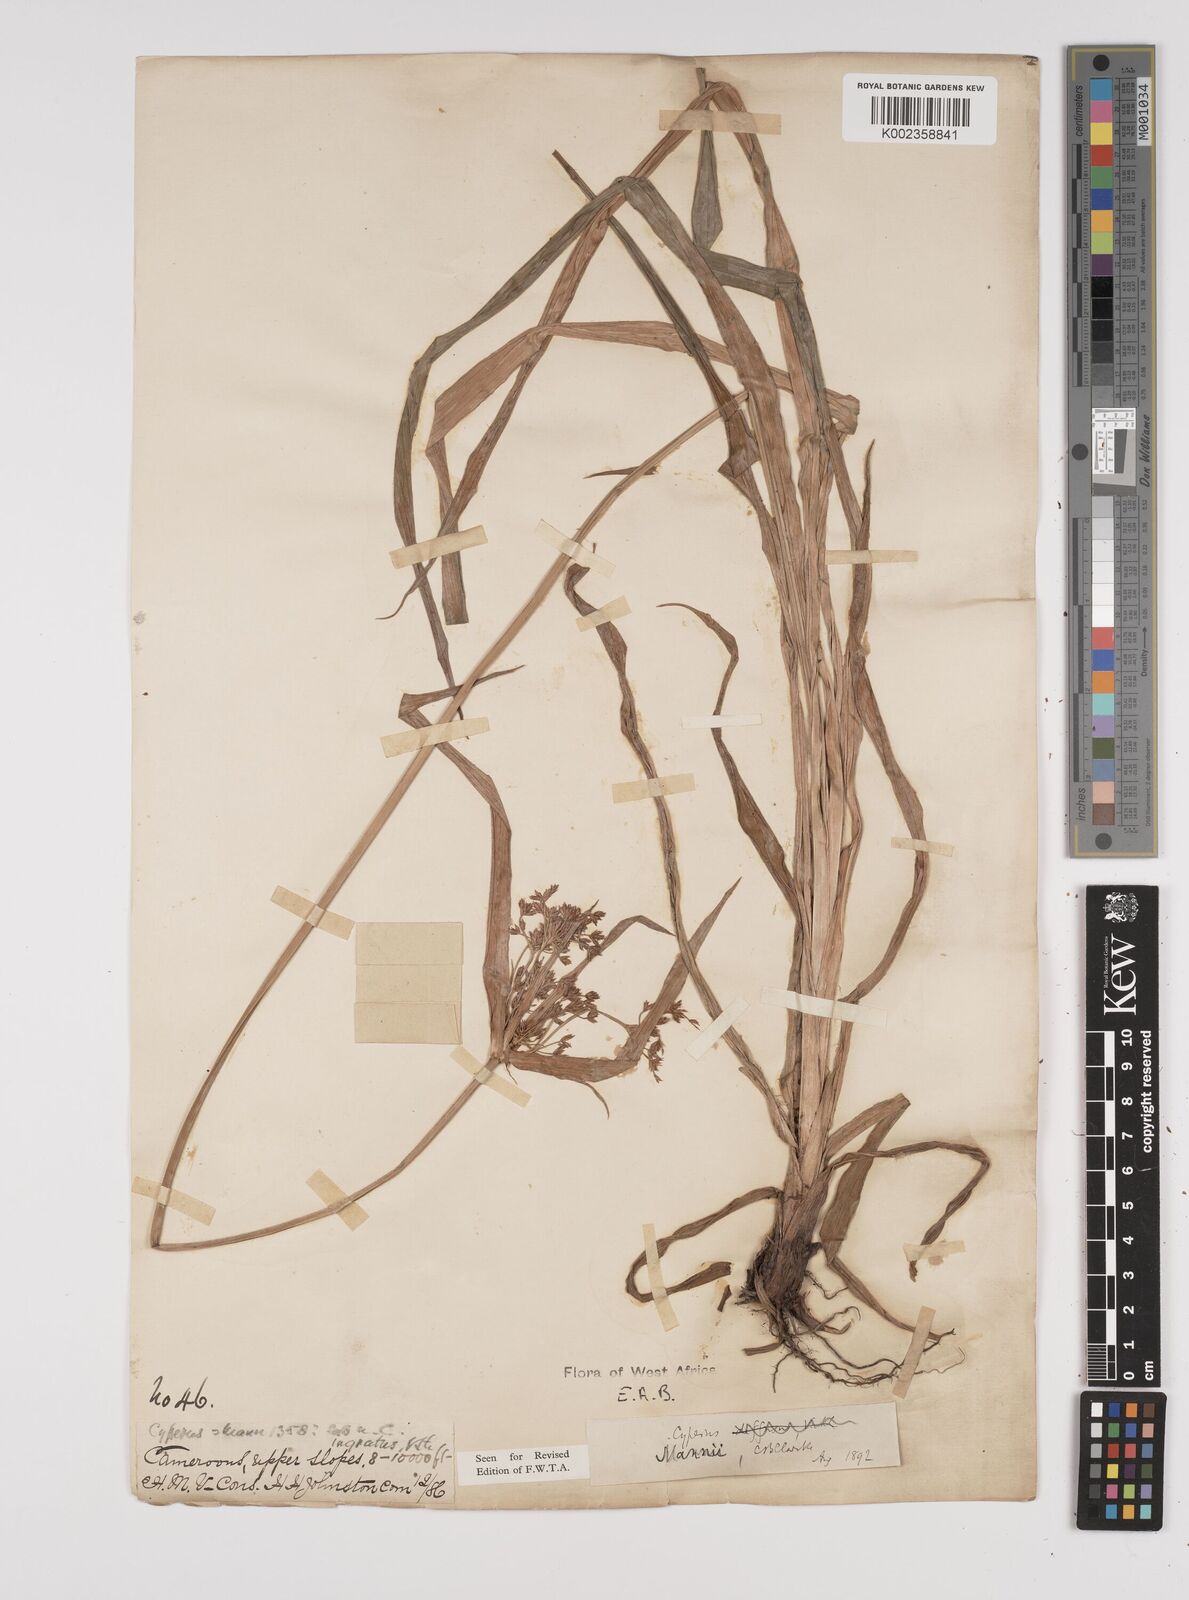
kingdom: Plantae
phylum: Tracheophyta
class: Liliopsida
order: Poales
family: Cyperaceae
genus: Cyperus
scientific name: Cyperus baronii
